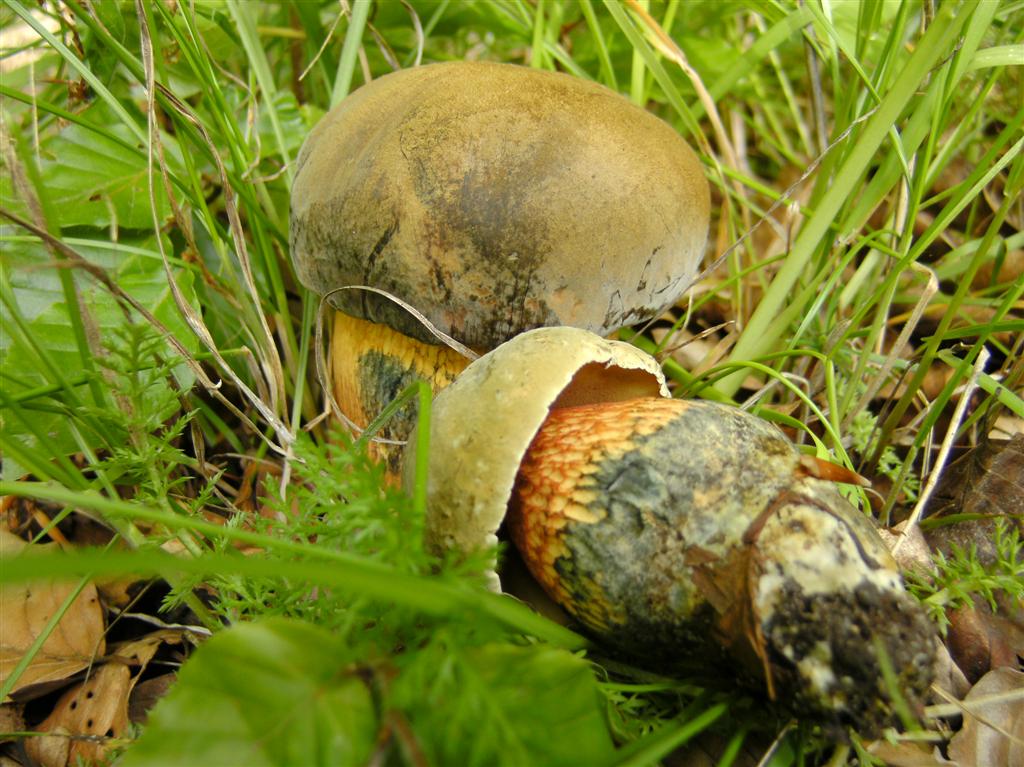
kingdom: Fungi
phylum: Basidiomycota
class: Agaricomycetes
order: Boletales
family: Boletaceae
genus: Suillellus
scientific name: Suillellus luridus
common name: netstokket indigorørhat
